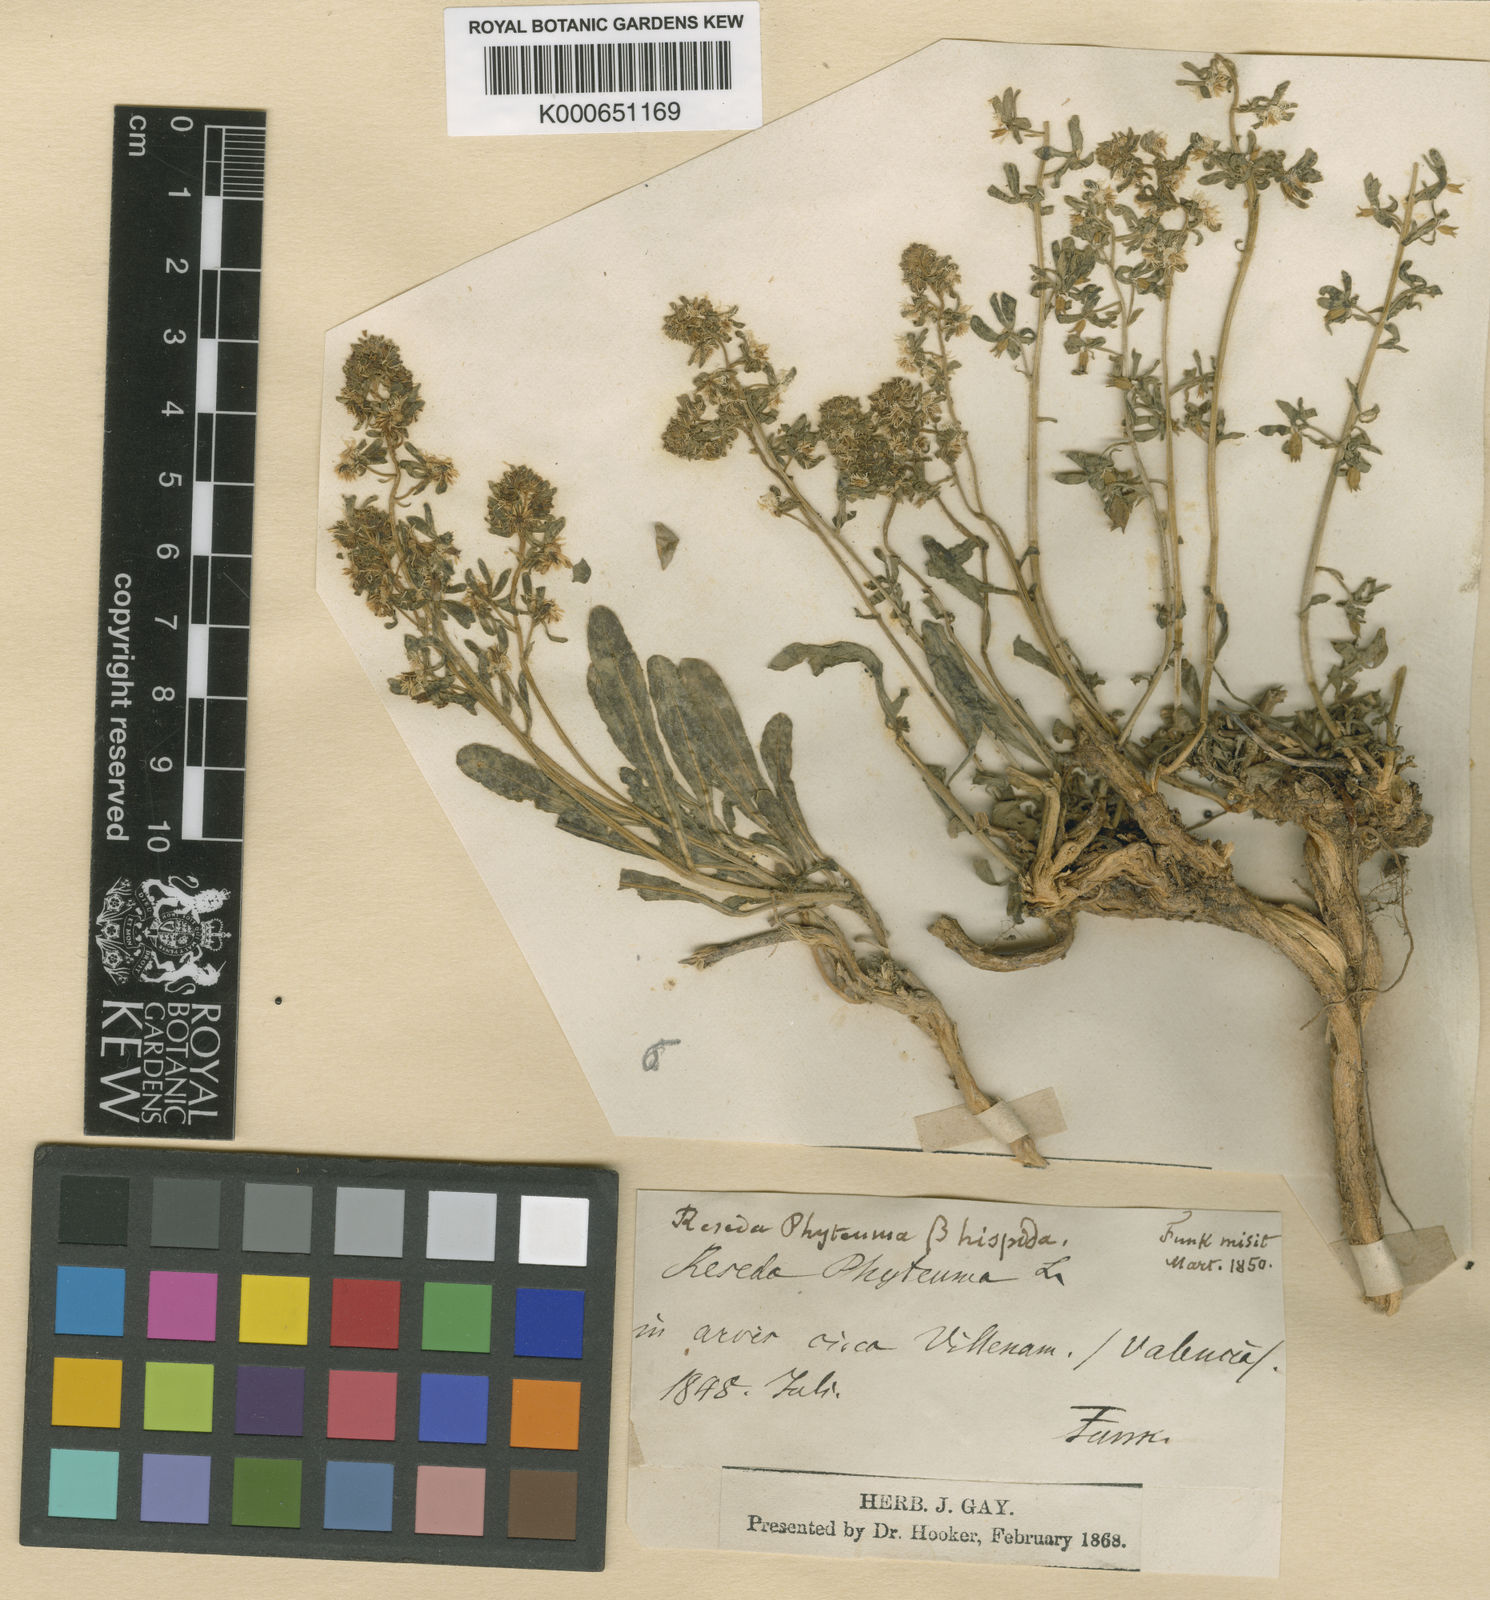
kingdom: Plantae
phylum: Tracheophyta
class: Magnoliopsida
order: Brassicales
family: Resedaceae
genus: Reseda
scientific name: Reseda phyteuma
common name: Corn mignonette
